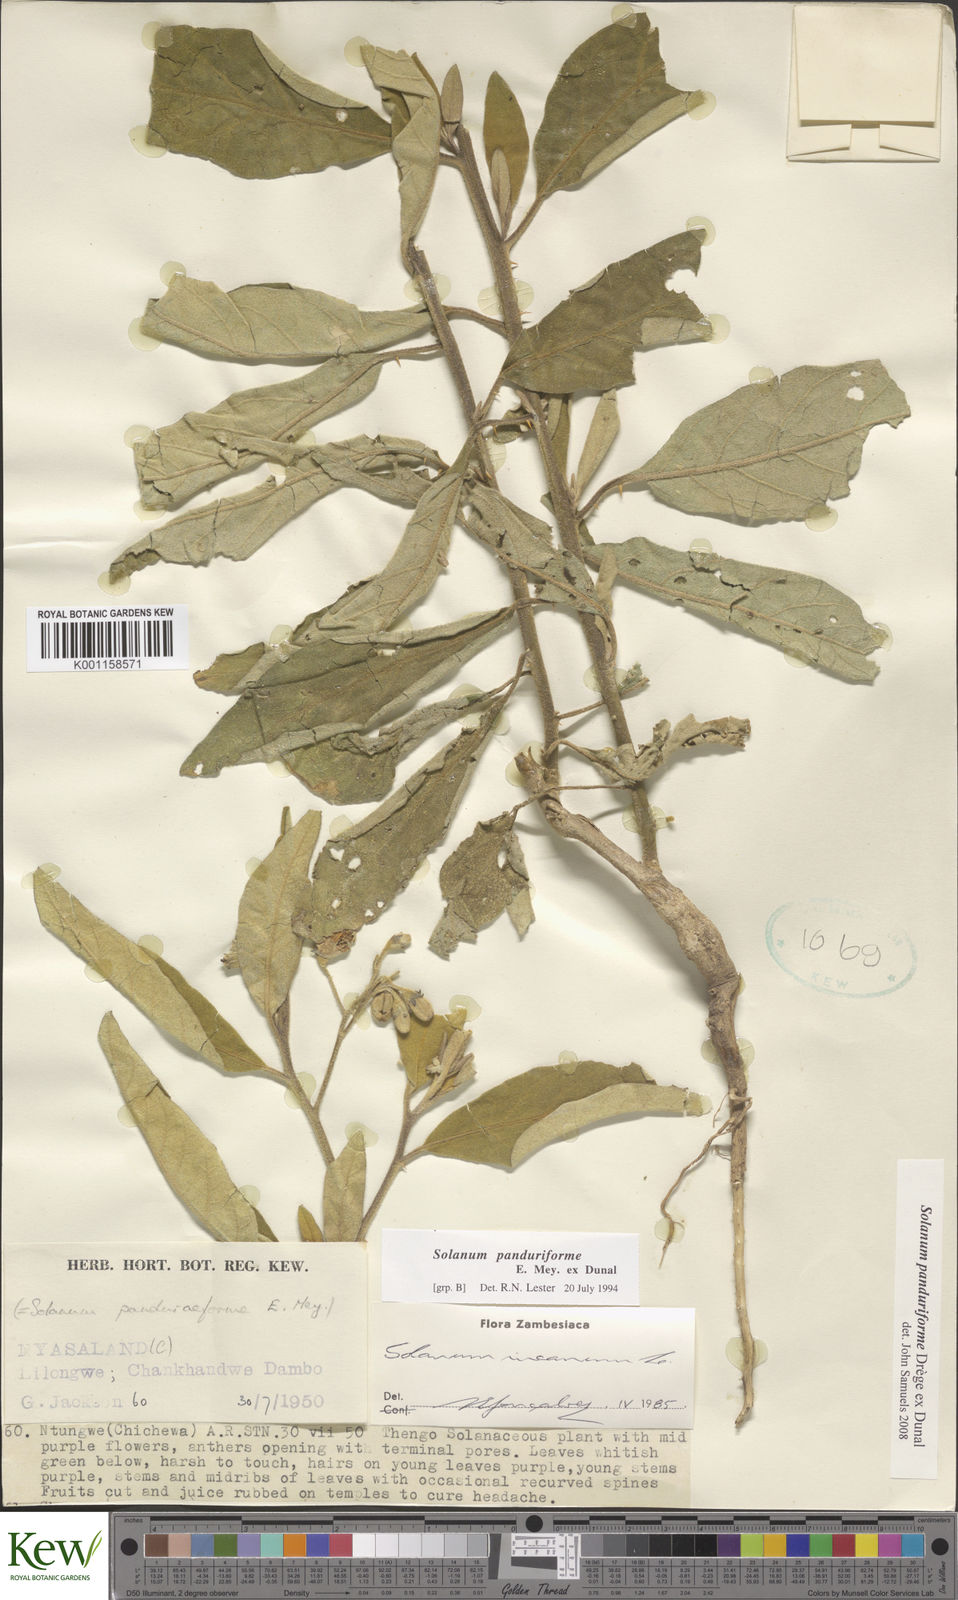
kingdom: Plantae
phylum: Tracheophyta
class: Magnoliopsida
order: Solanales
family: Solanaceae
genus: Solanum
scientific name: Solanum campylacanthum
